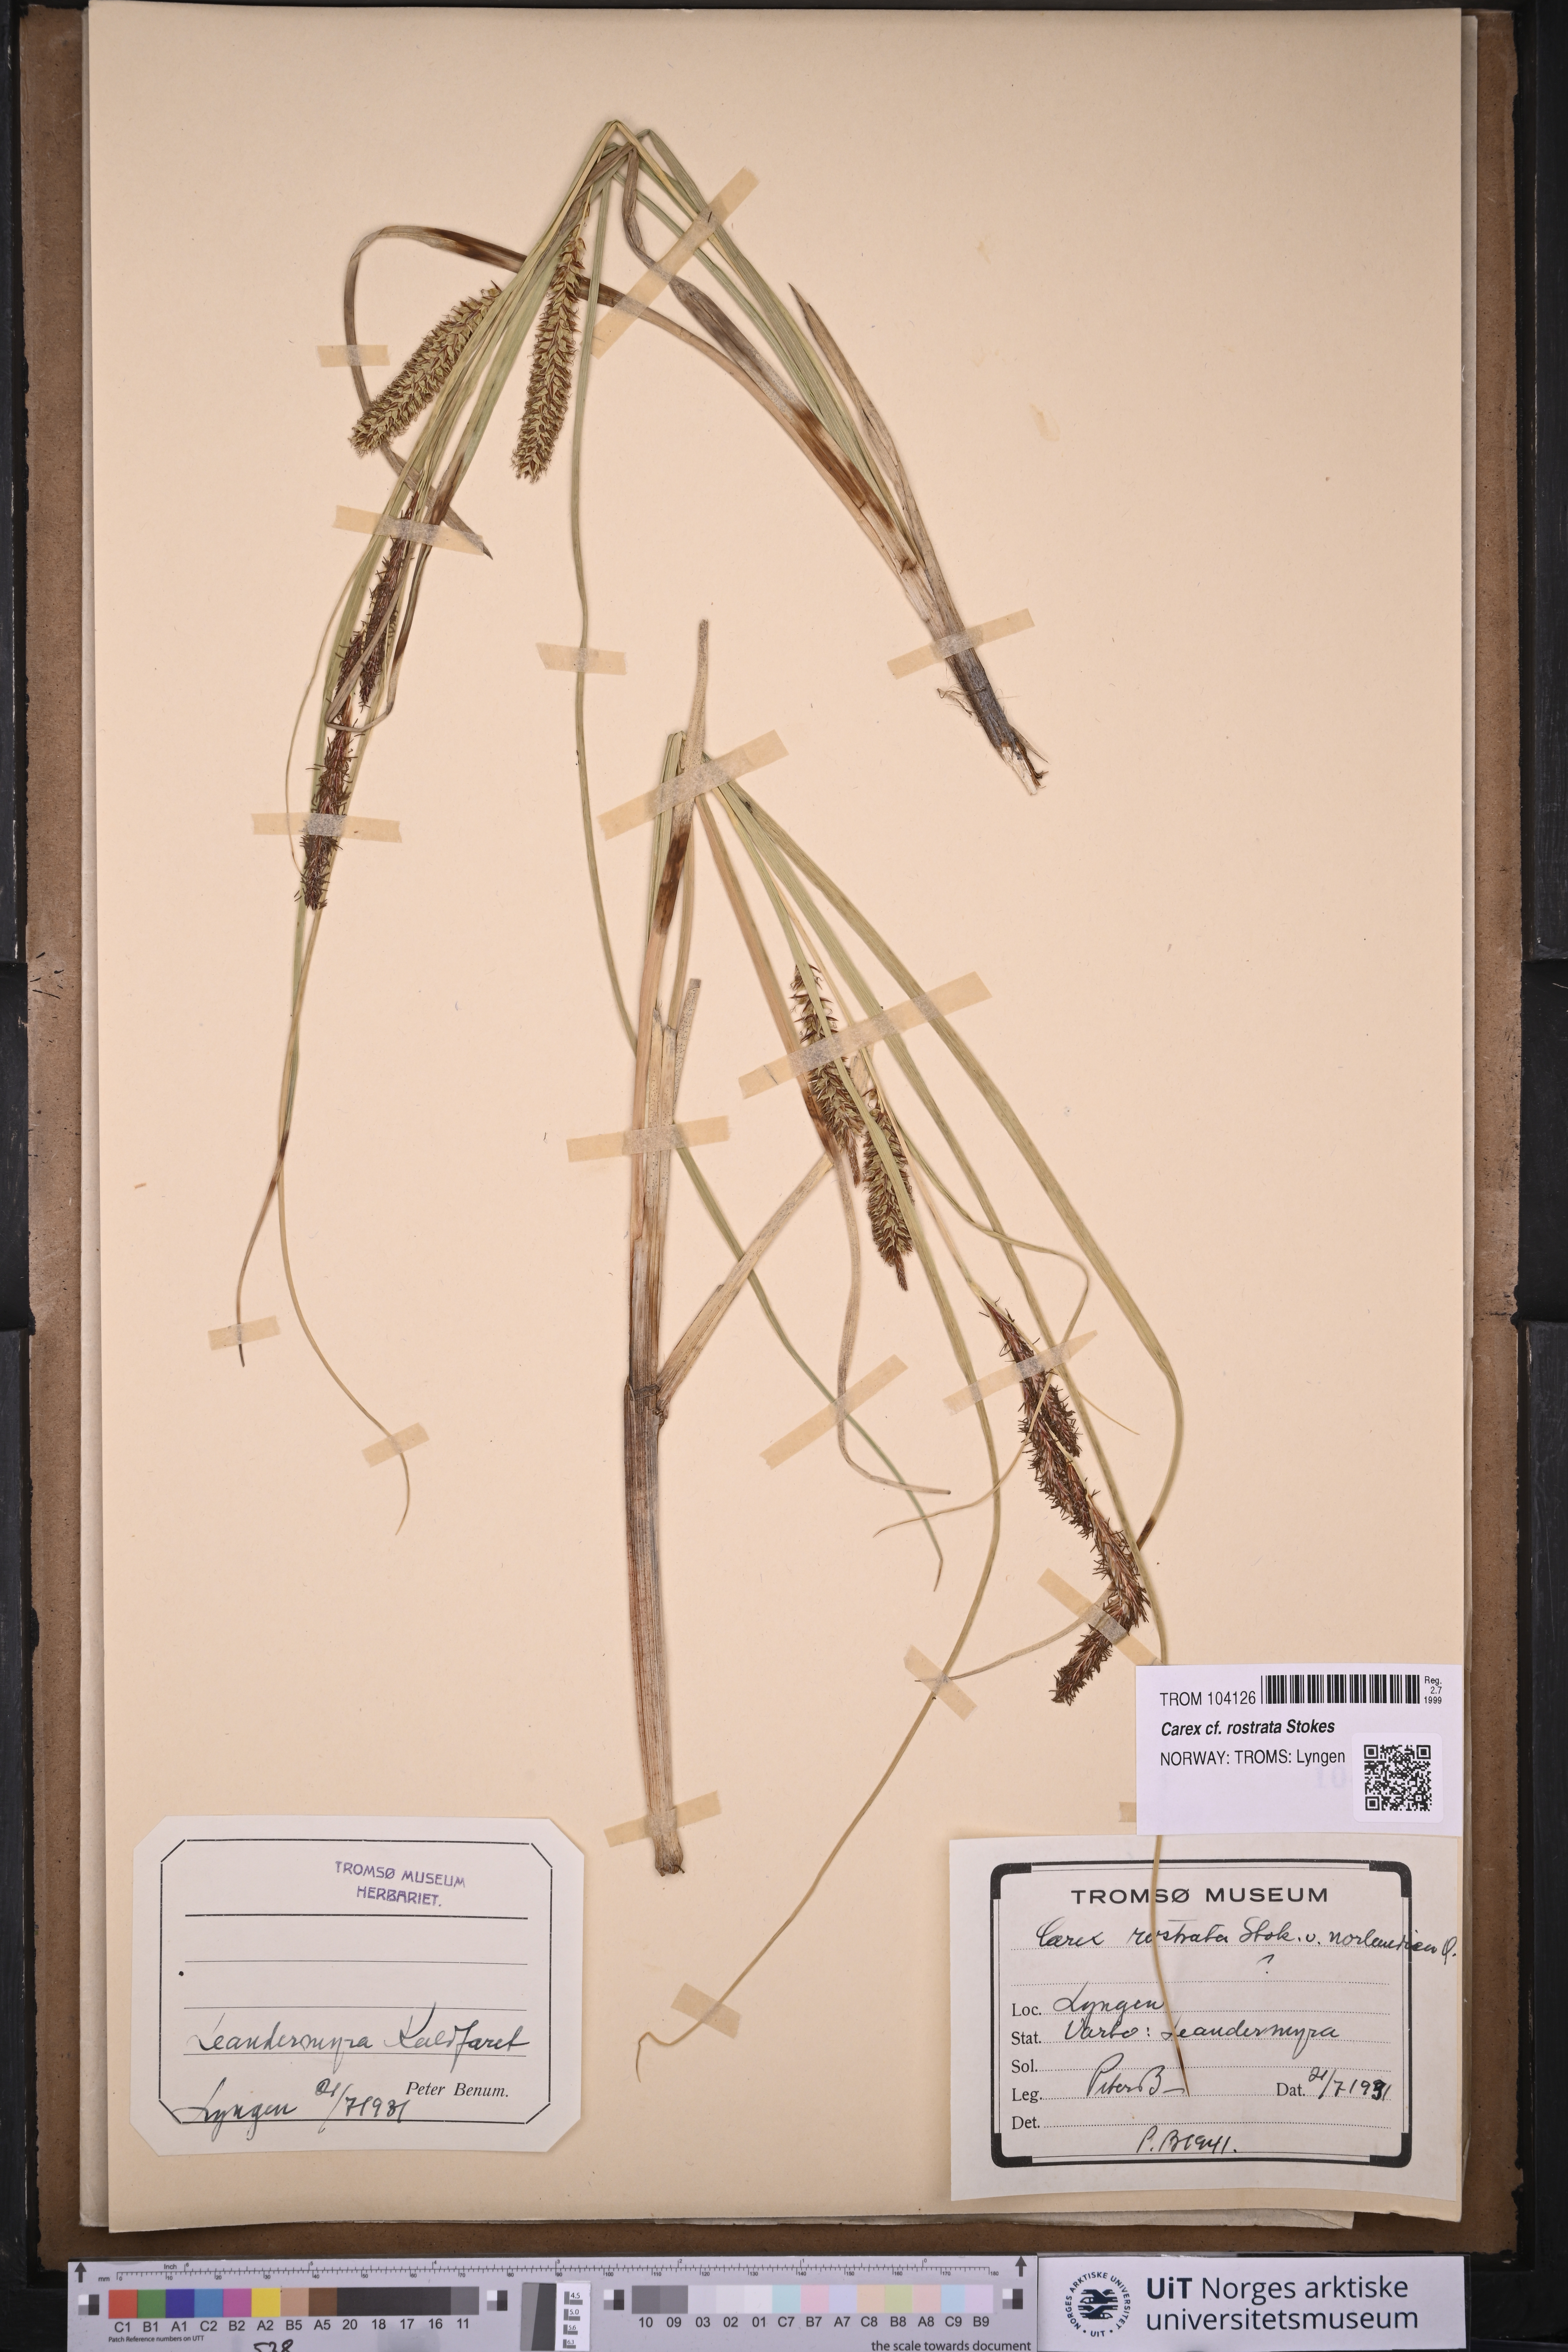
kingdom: Plantae
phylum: Tracheophyta
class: Liliopsida
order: Poales
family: Cyperaceae
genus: Carex
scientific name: Carex rostrata
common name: Bottle sedge
